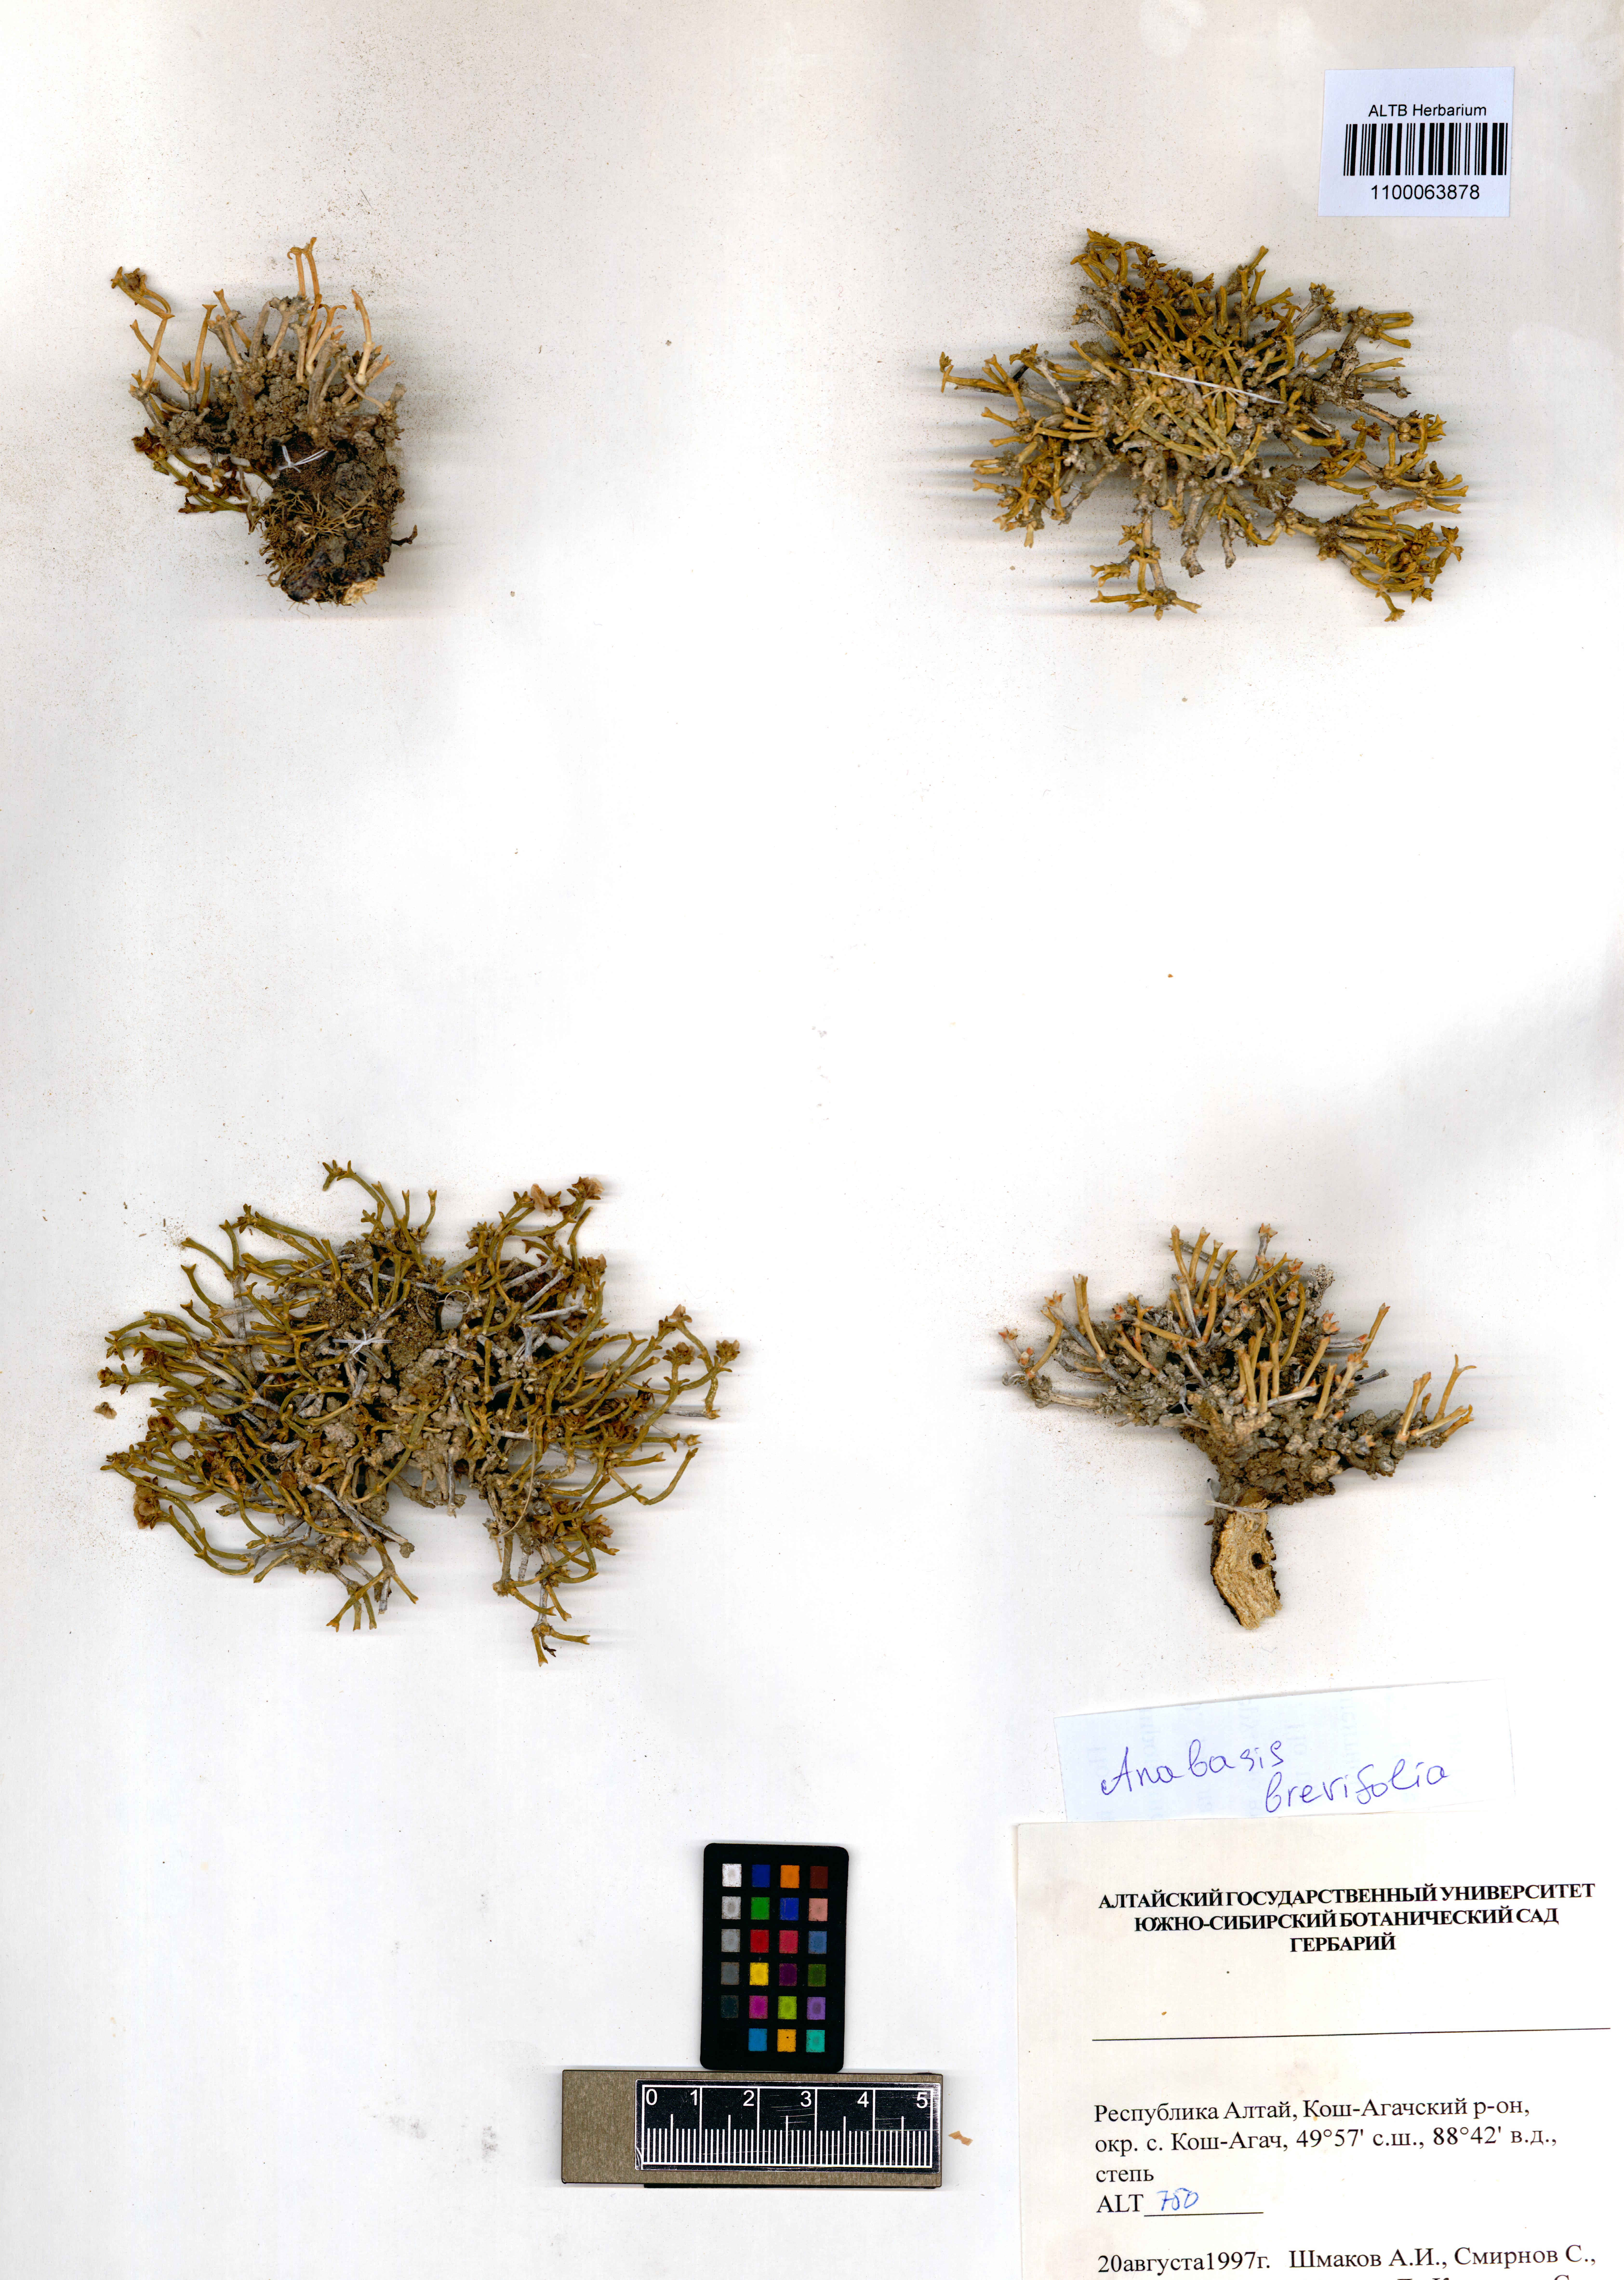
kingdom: Plantae
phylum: Tracheophyta
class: Magnoliopsida
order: Caryophyllales
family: Amaranthaceae
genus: Anabasis
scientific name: Anabasis brevifolia
